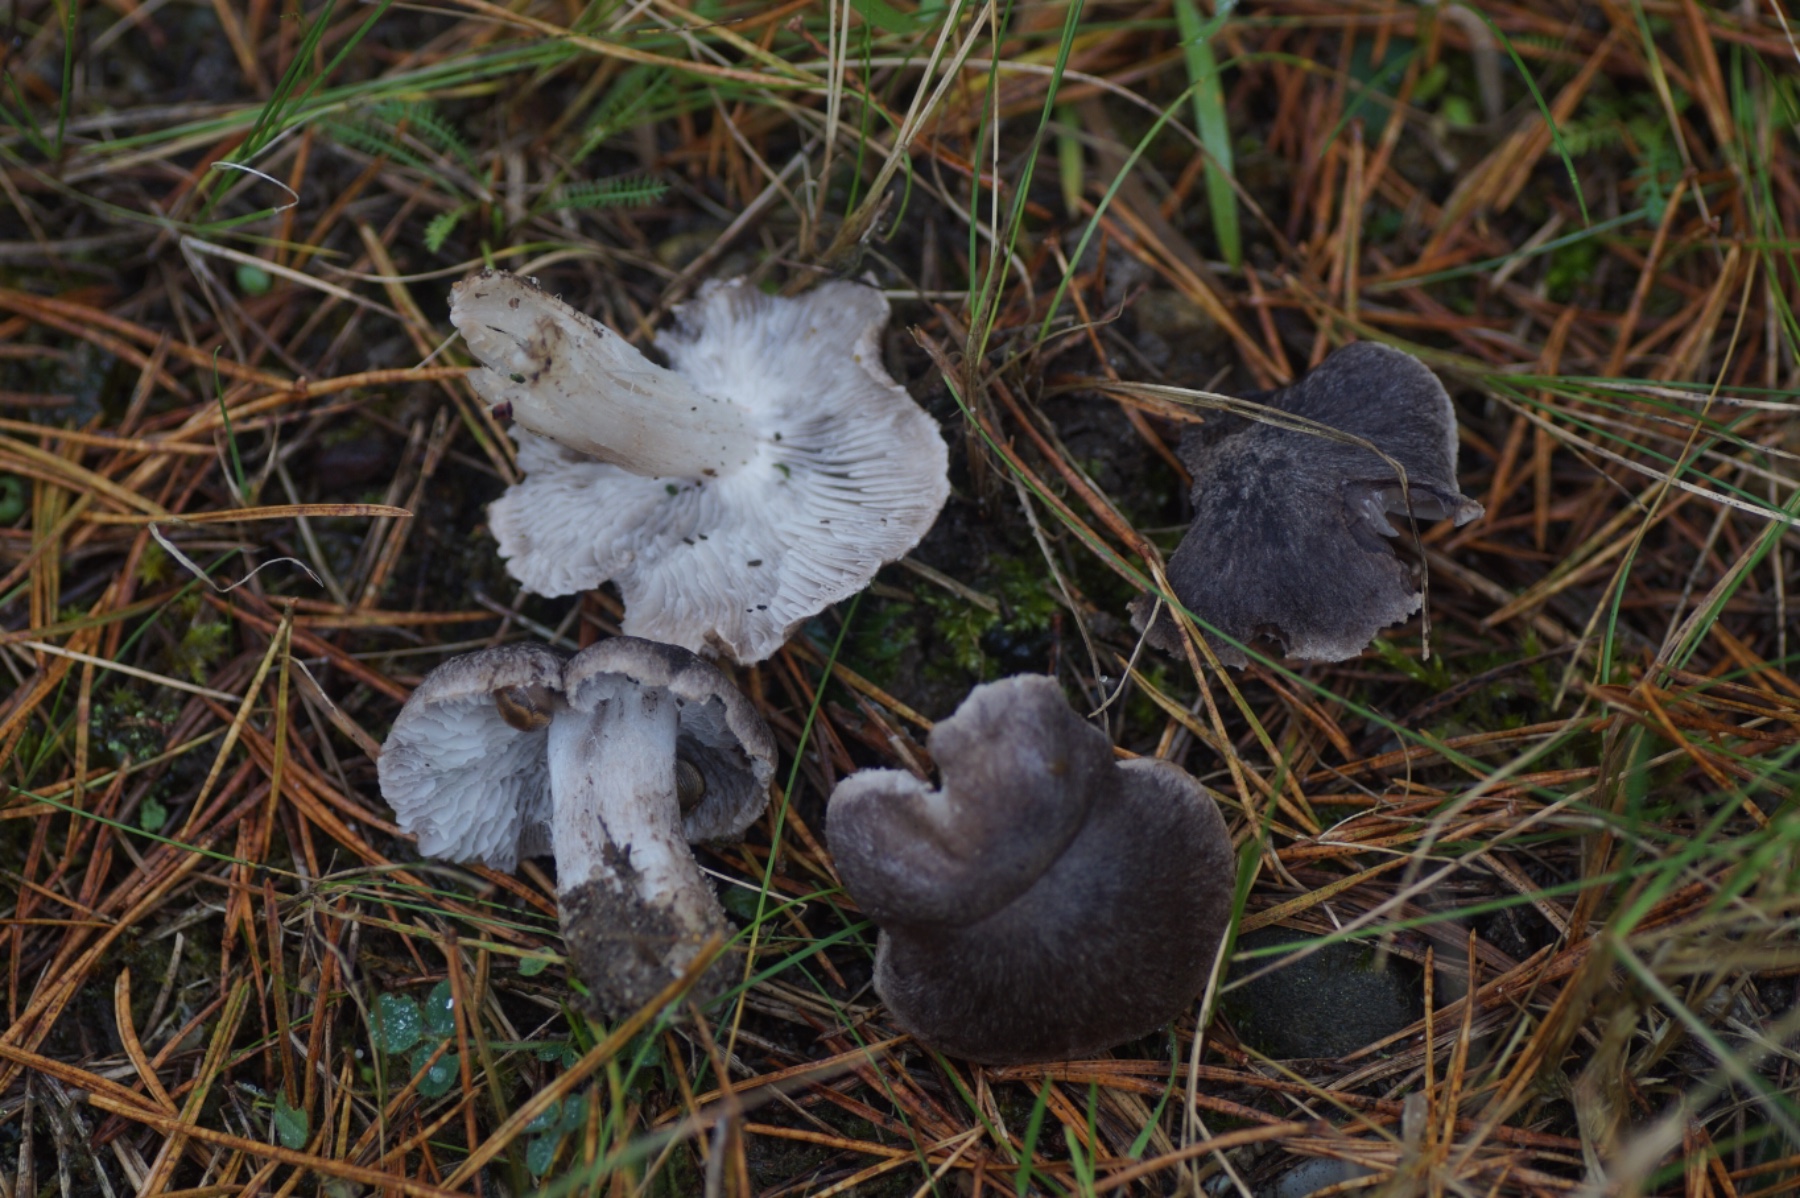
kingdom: Fungi
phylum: Basidiomycota
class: Agaricomycetes
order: Agaricales
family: Tricholomataceae
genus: Tricholoma
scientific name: Tricholoma terreum
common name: jordfarvet ridderhat
